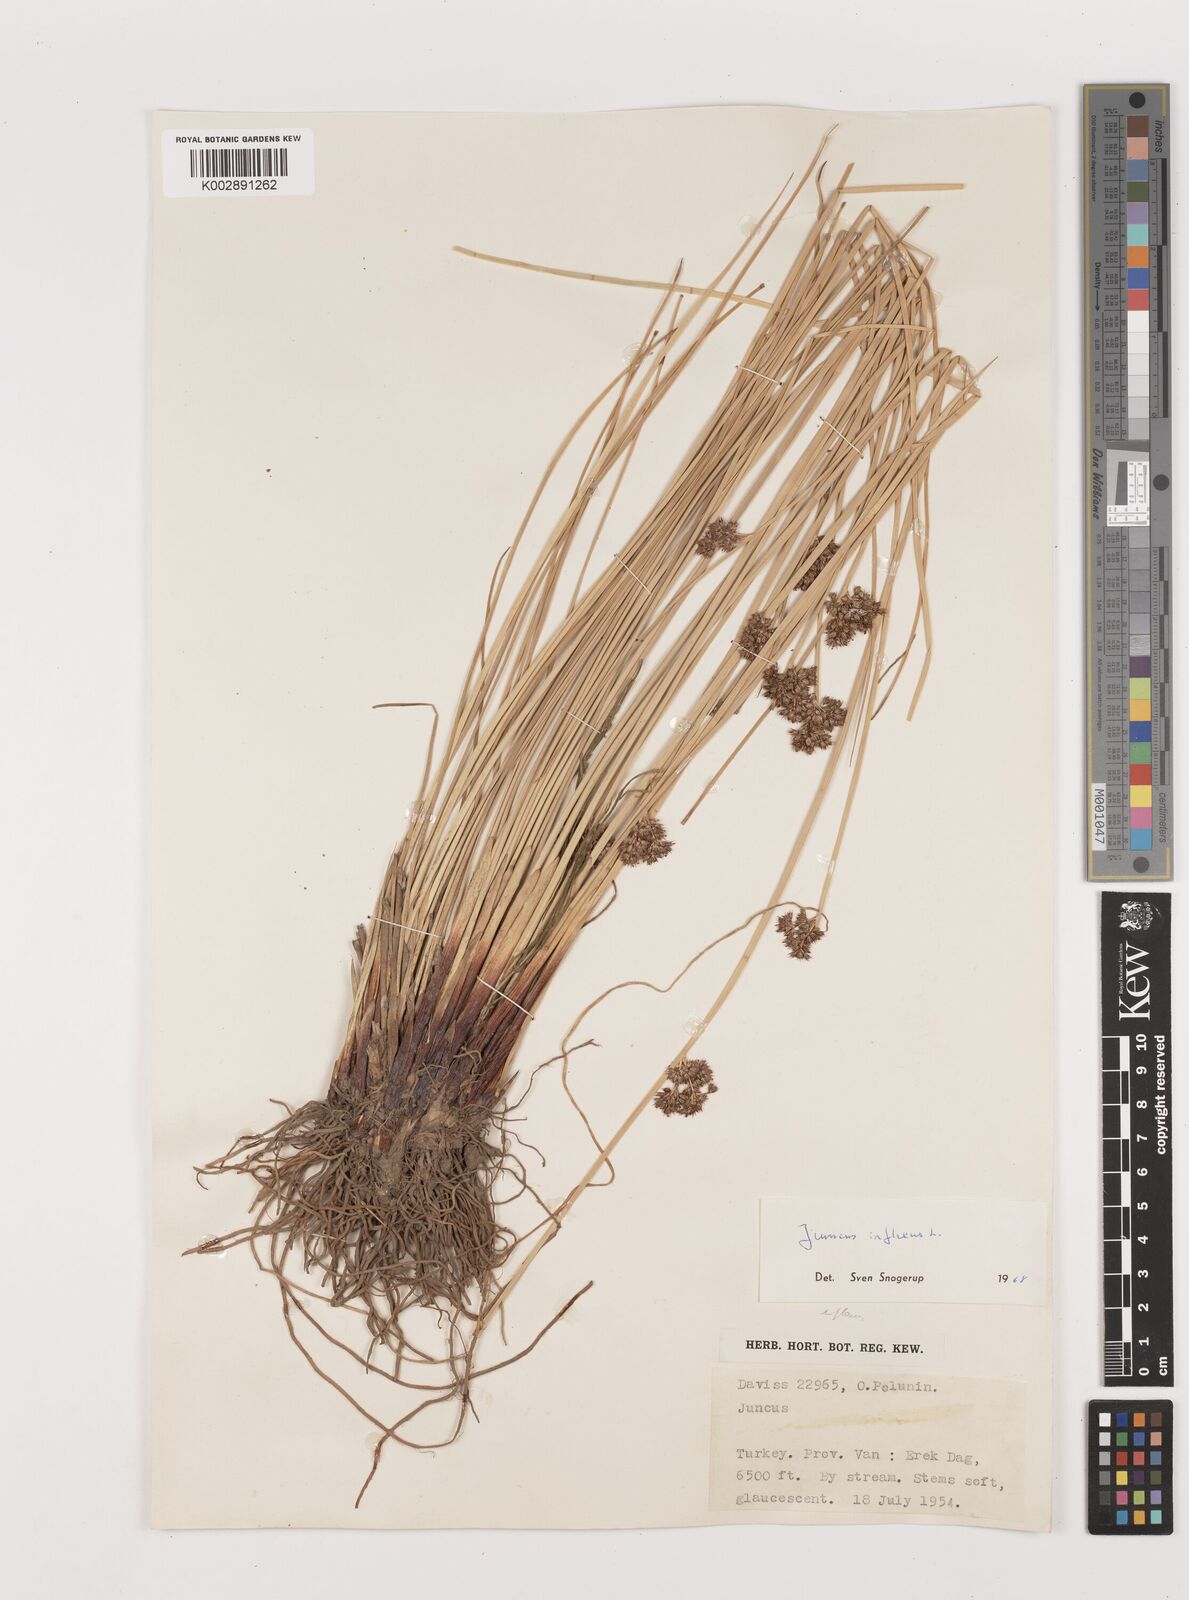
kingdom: Plantae
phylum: Tracheophyta
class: Liliopsida
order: Poales
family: Juncaceae
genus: Juncus
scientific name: Juncus inflexus
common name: Hard rush
